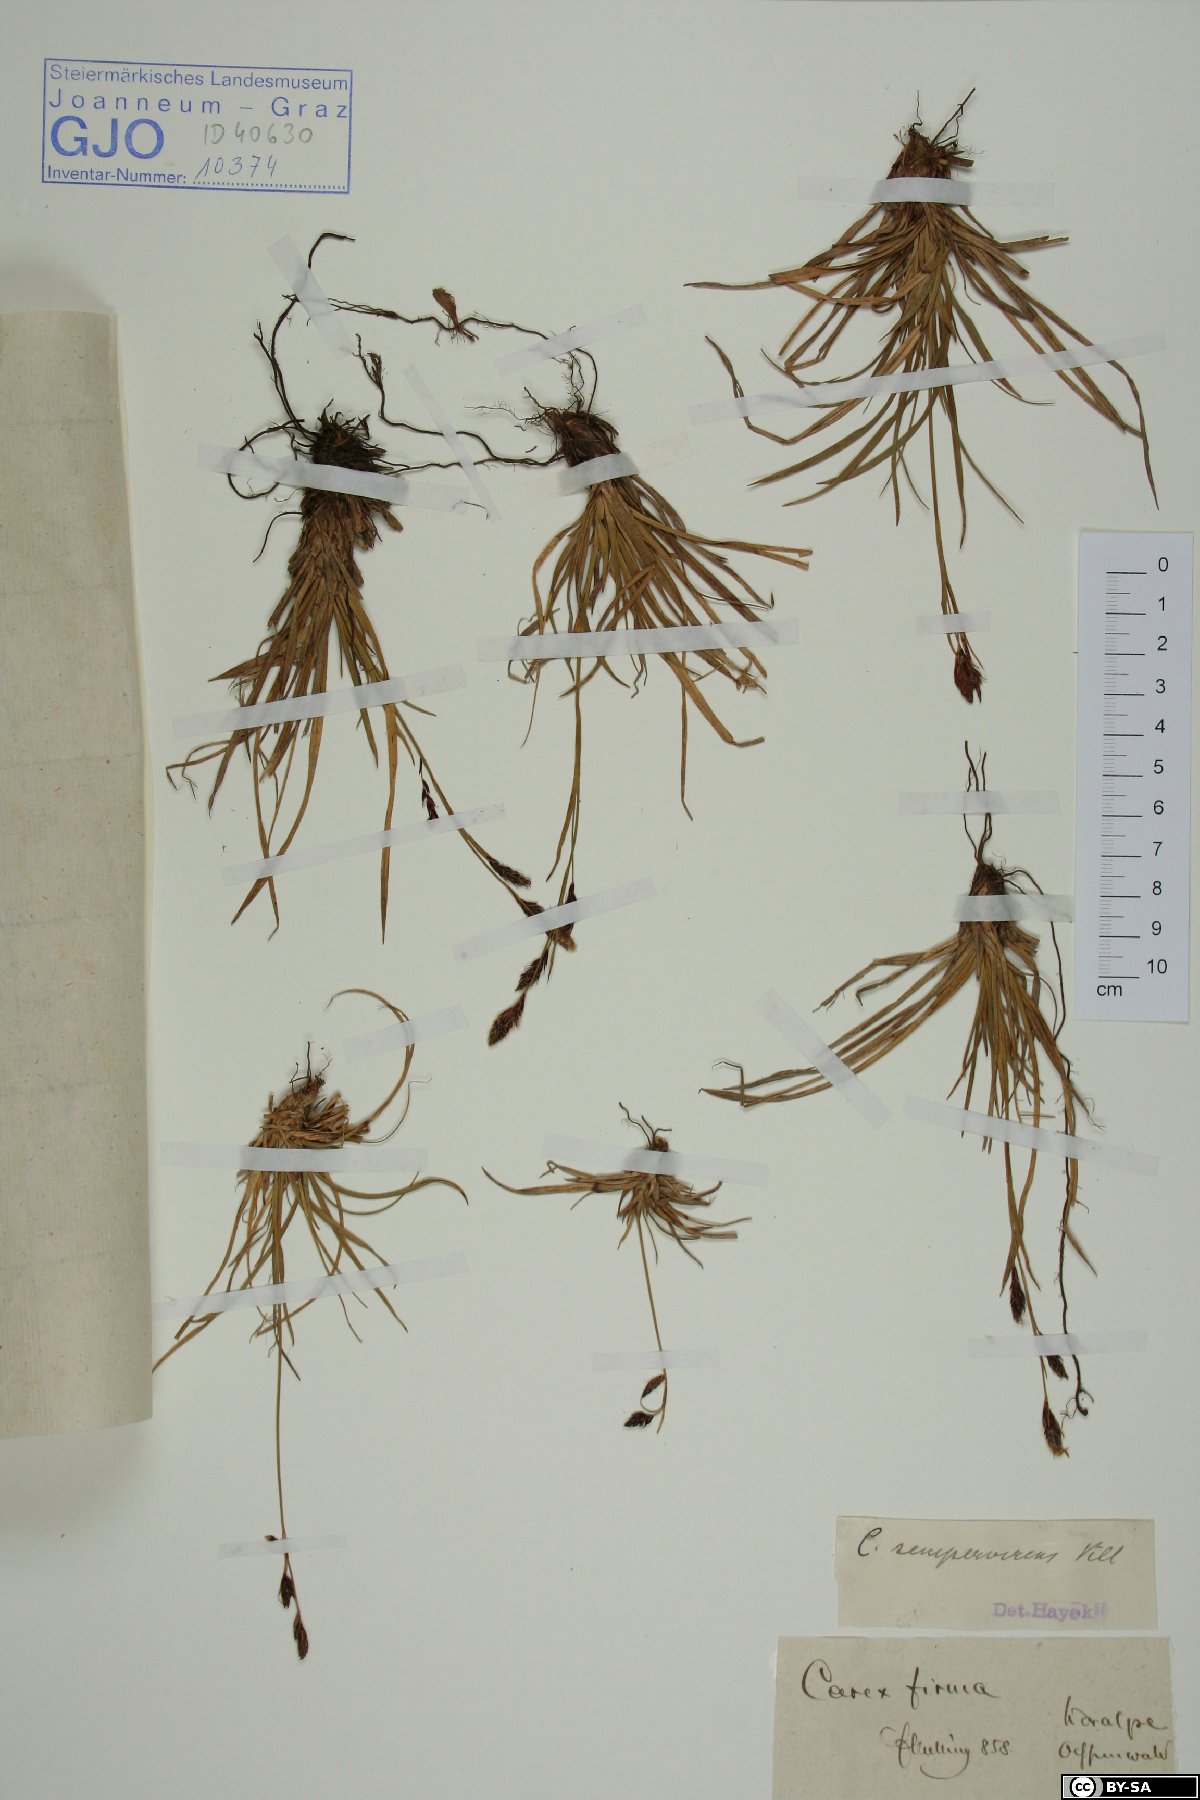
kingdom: Plantae
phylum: Tracheophyta
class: Liliopsida
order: Poales
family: Cyperaceae
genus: Carex
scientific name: Carex sempervirens
